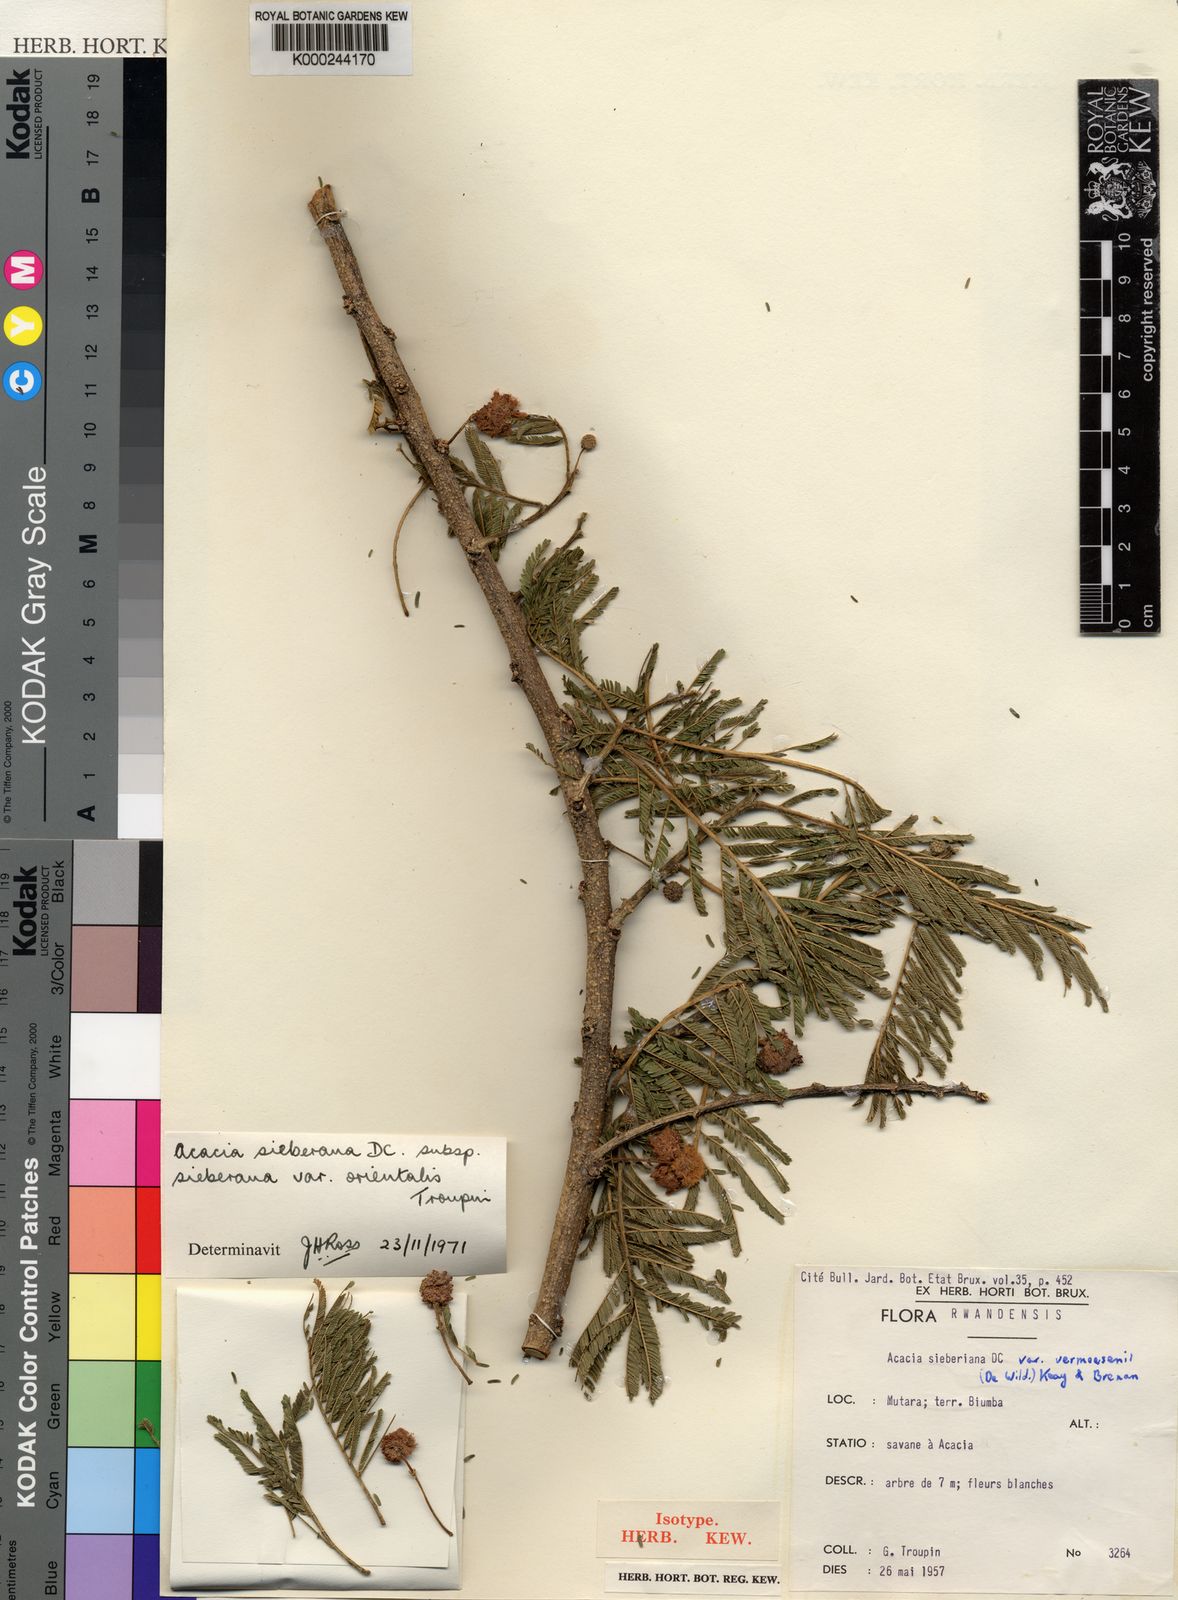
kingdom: Plantae
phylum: Tracheophyta
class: Magnoliopsida
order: Fabales
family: Fabaceae
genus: Vachellia
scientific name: Vachellia sieberiana
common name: Flat-topped thorn
